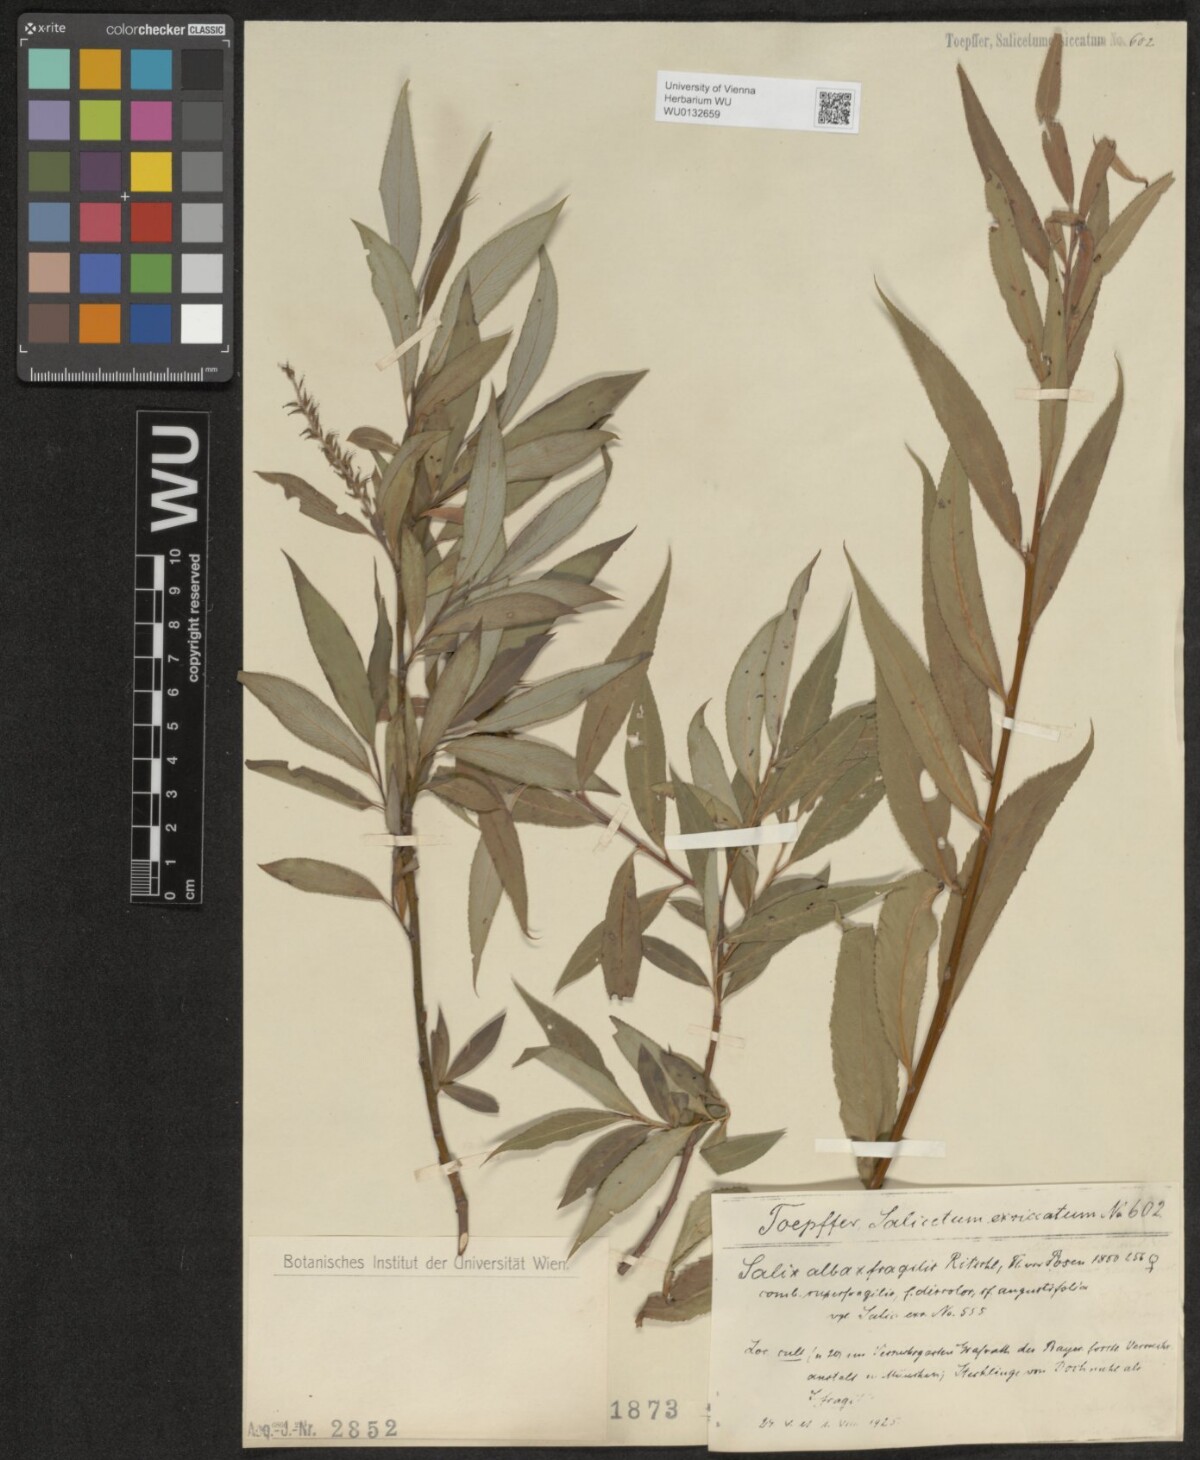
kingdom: Plantae
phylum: Tracheophyta
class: Magnoliopsida
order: Malpighiales
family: Salicaceae
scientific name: Salicaceae
